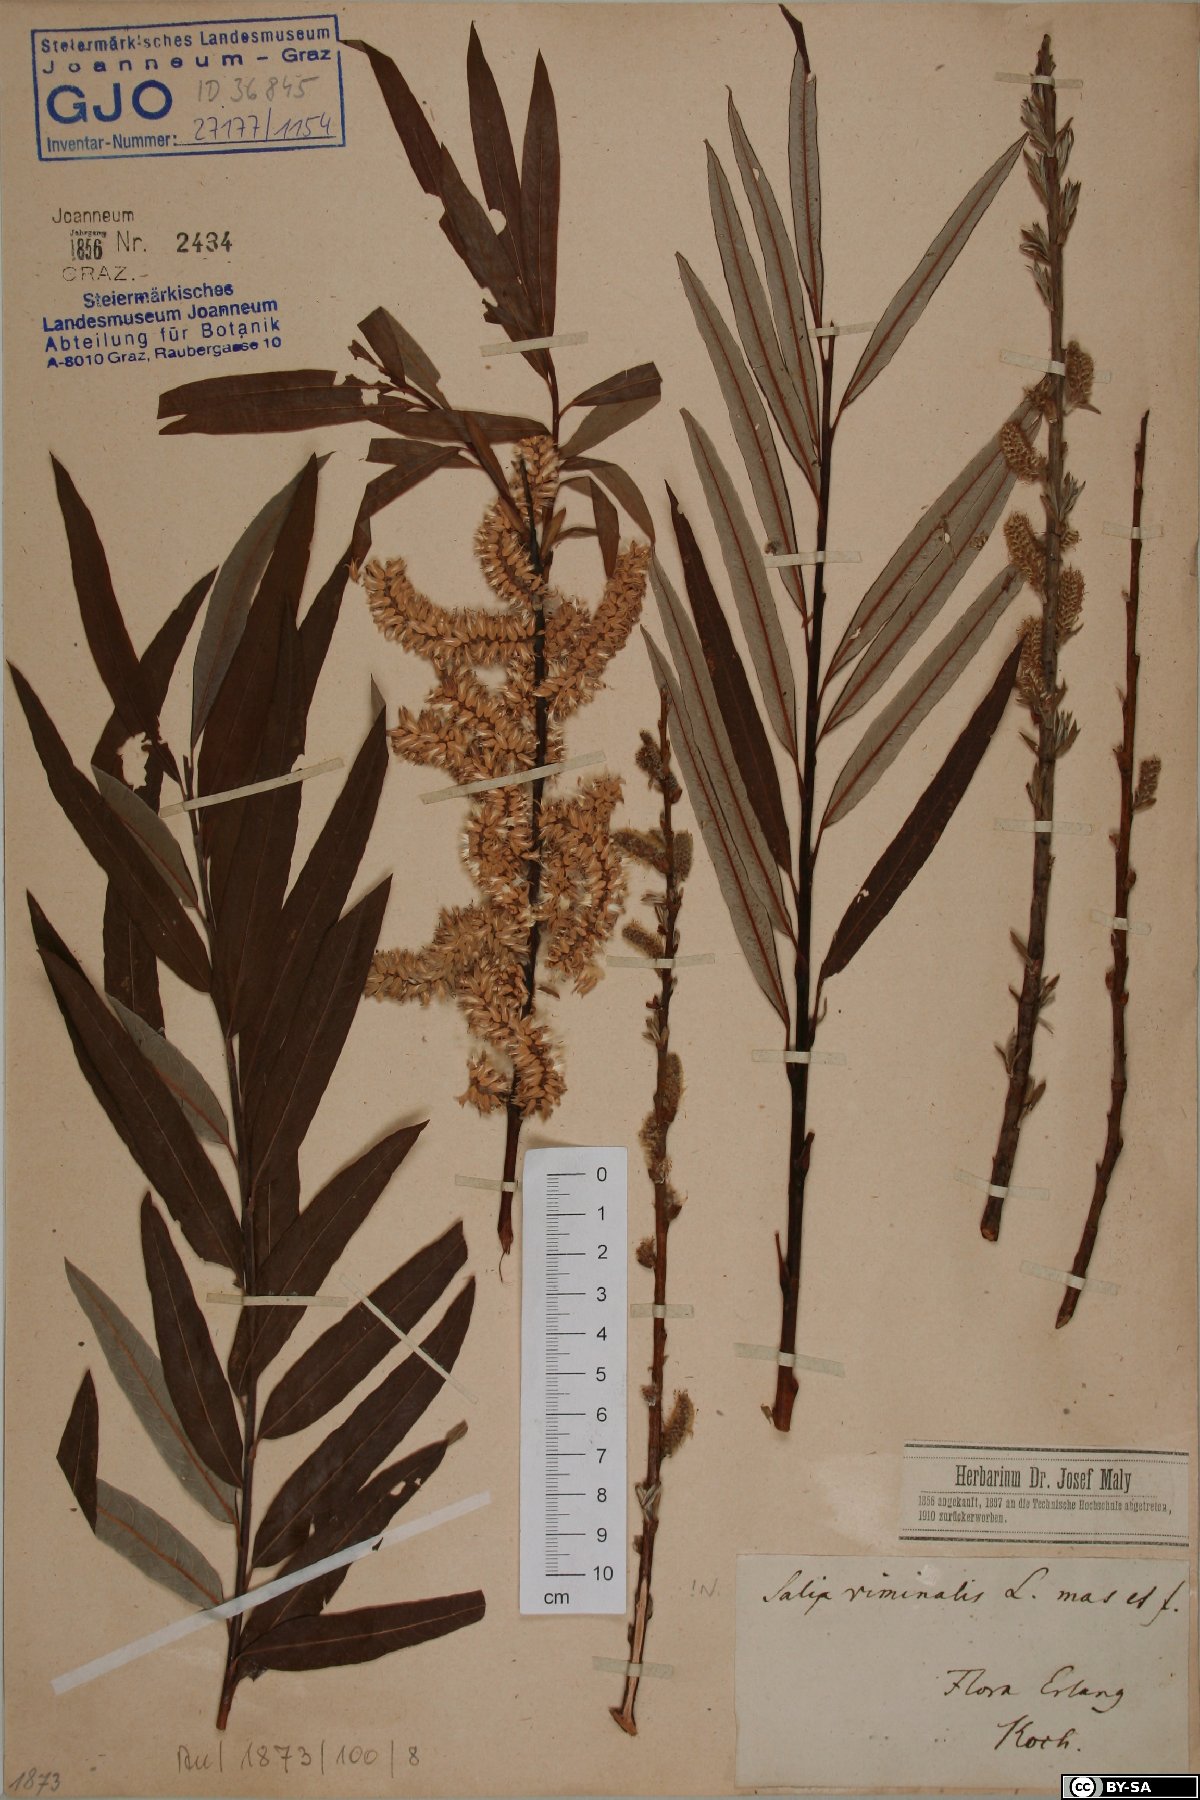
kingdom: Plantae
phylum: Tracheophyta
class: Magnoliopsida
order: Malpighiales
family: Salicaceae
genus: Salix
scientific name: Salix viminalis
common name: Osier
